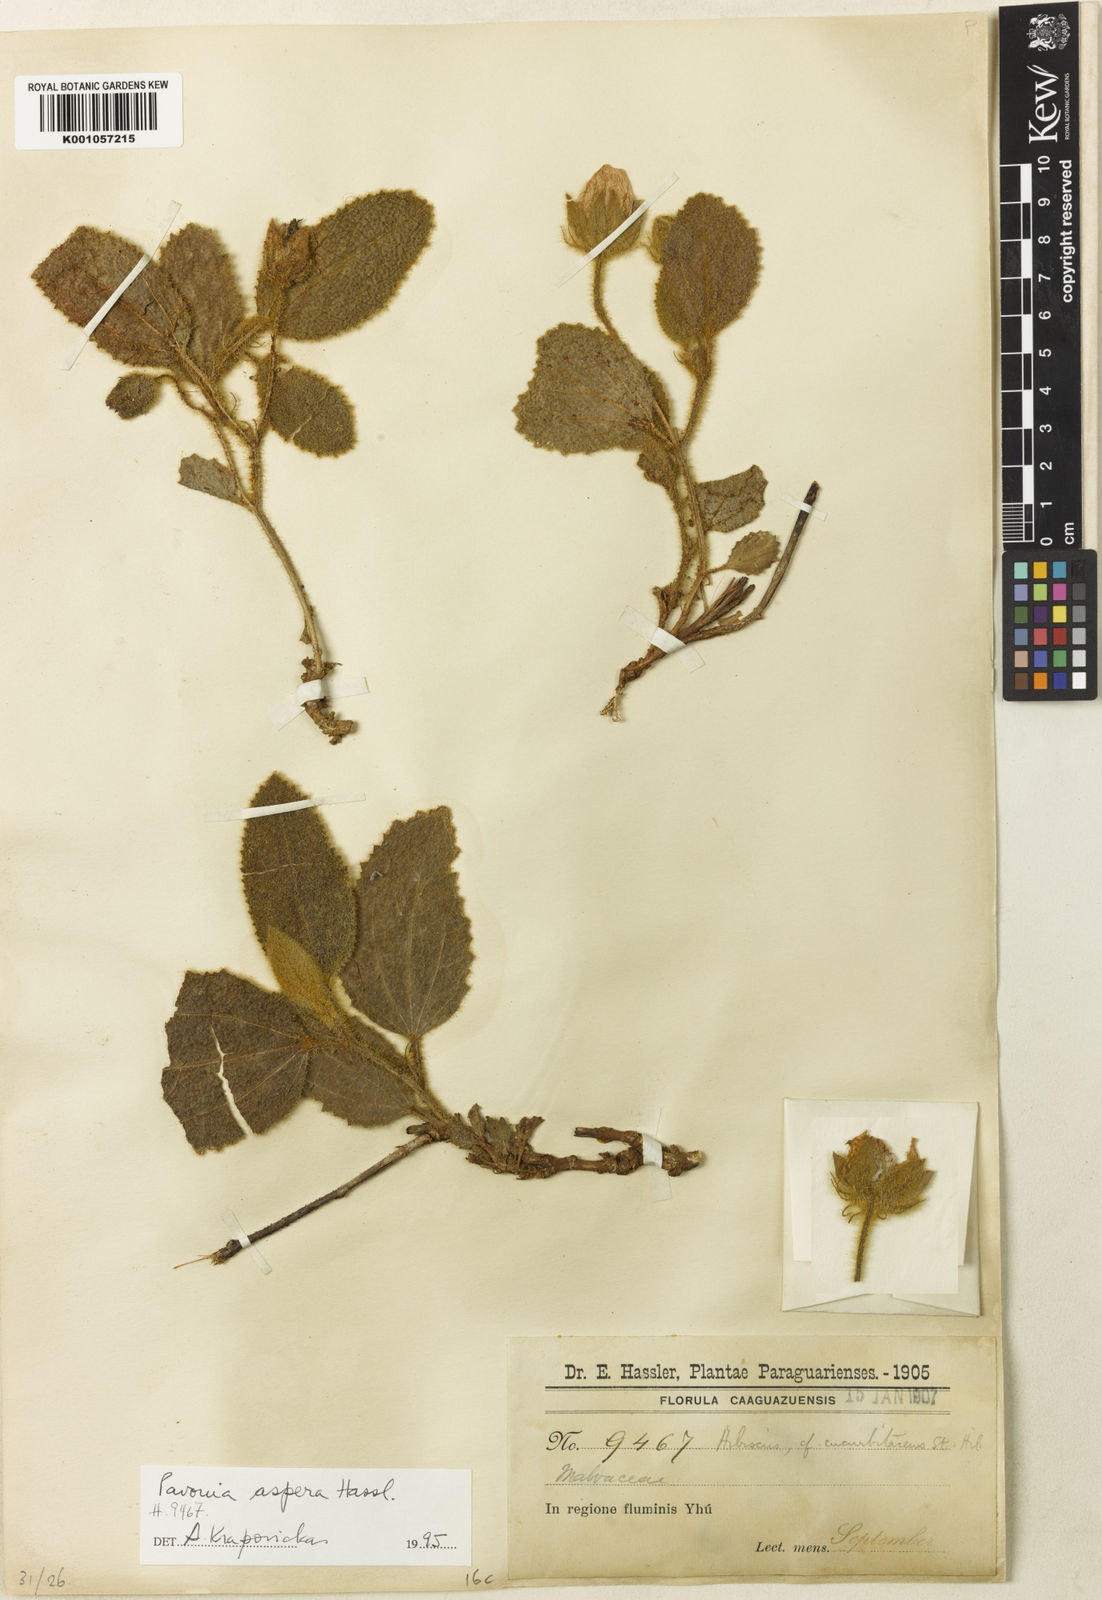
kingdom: Plantae
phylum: Tracheophyta
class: Magnoliopsida
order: Malvales
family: Malvaceae
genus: Pavonia
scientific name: Pavonia aspera
